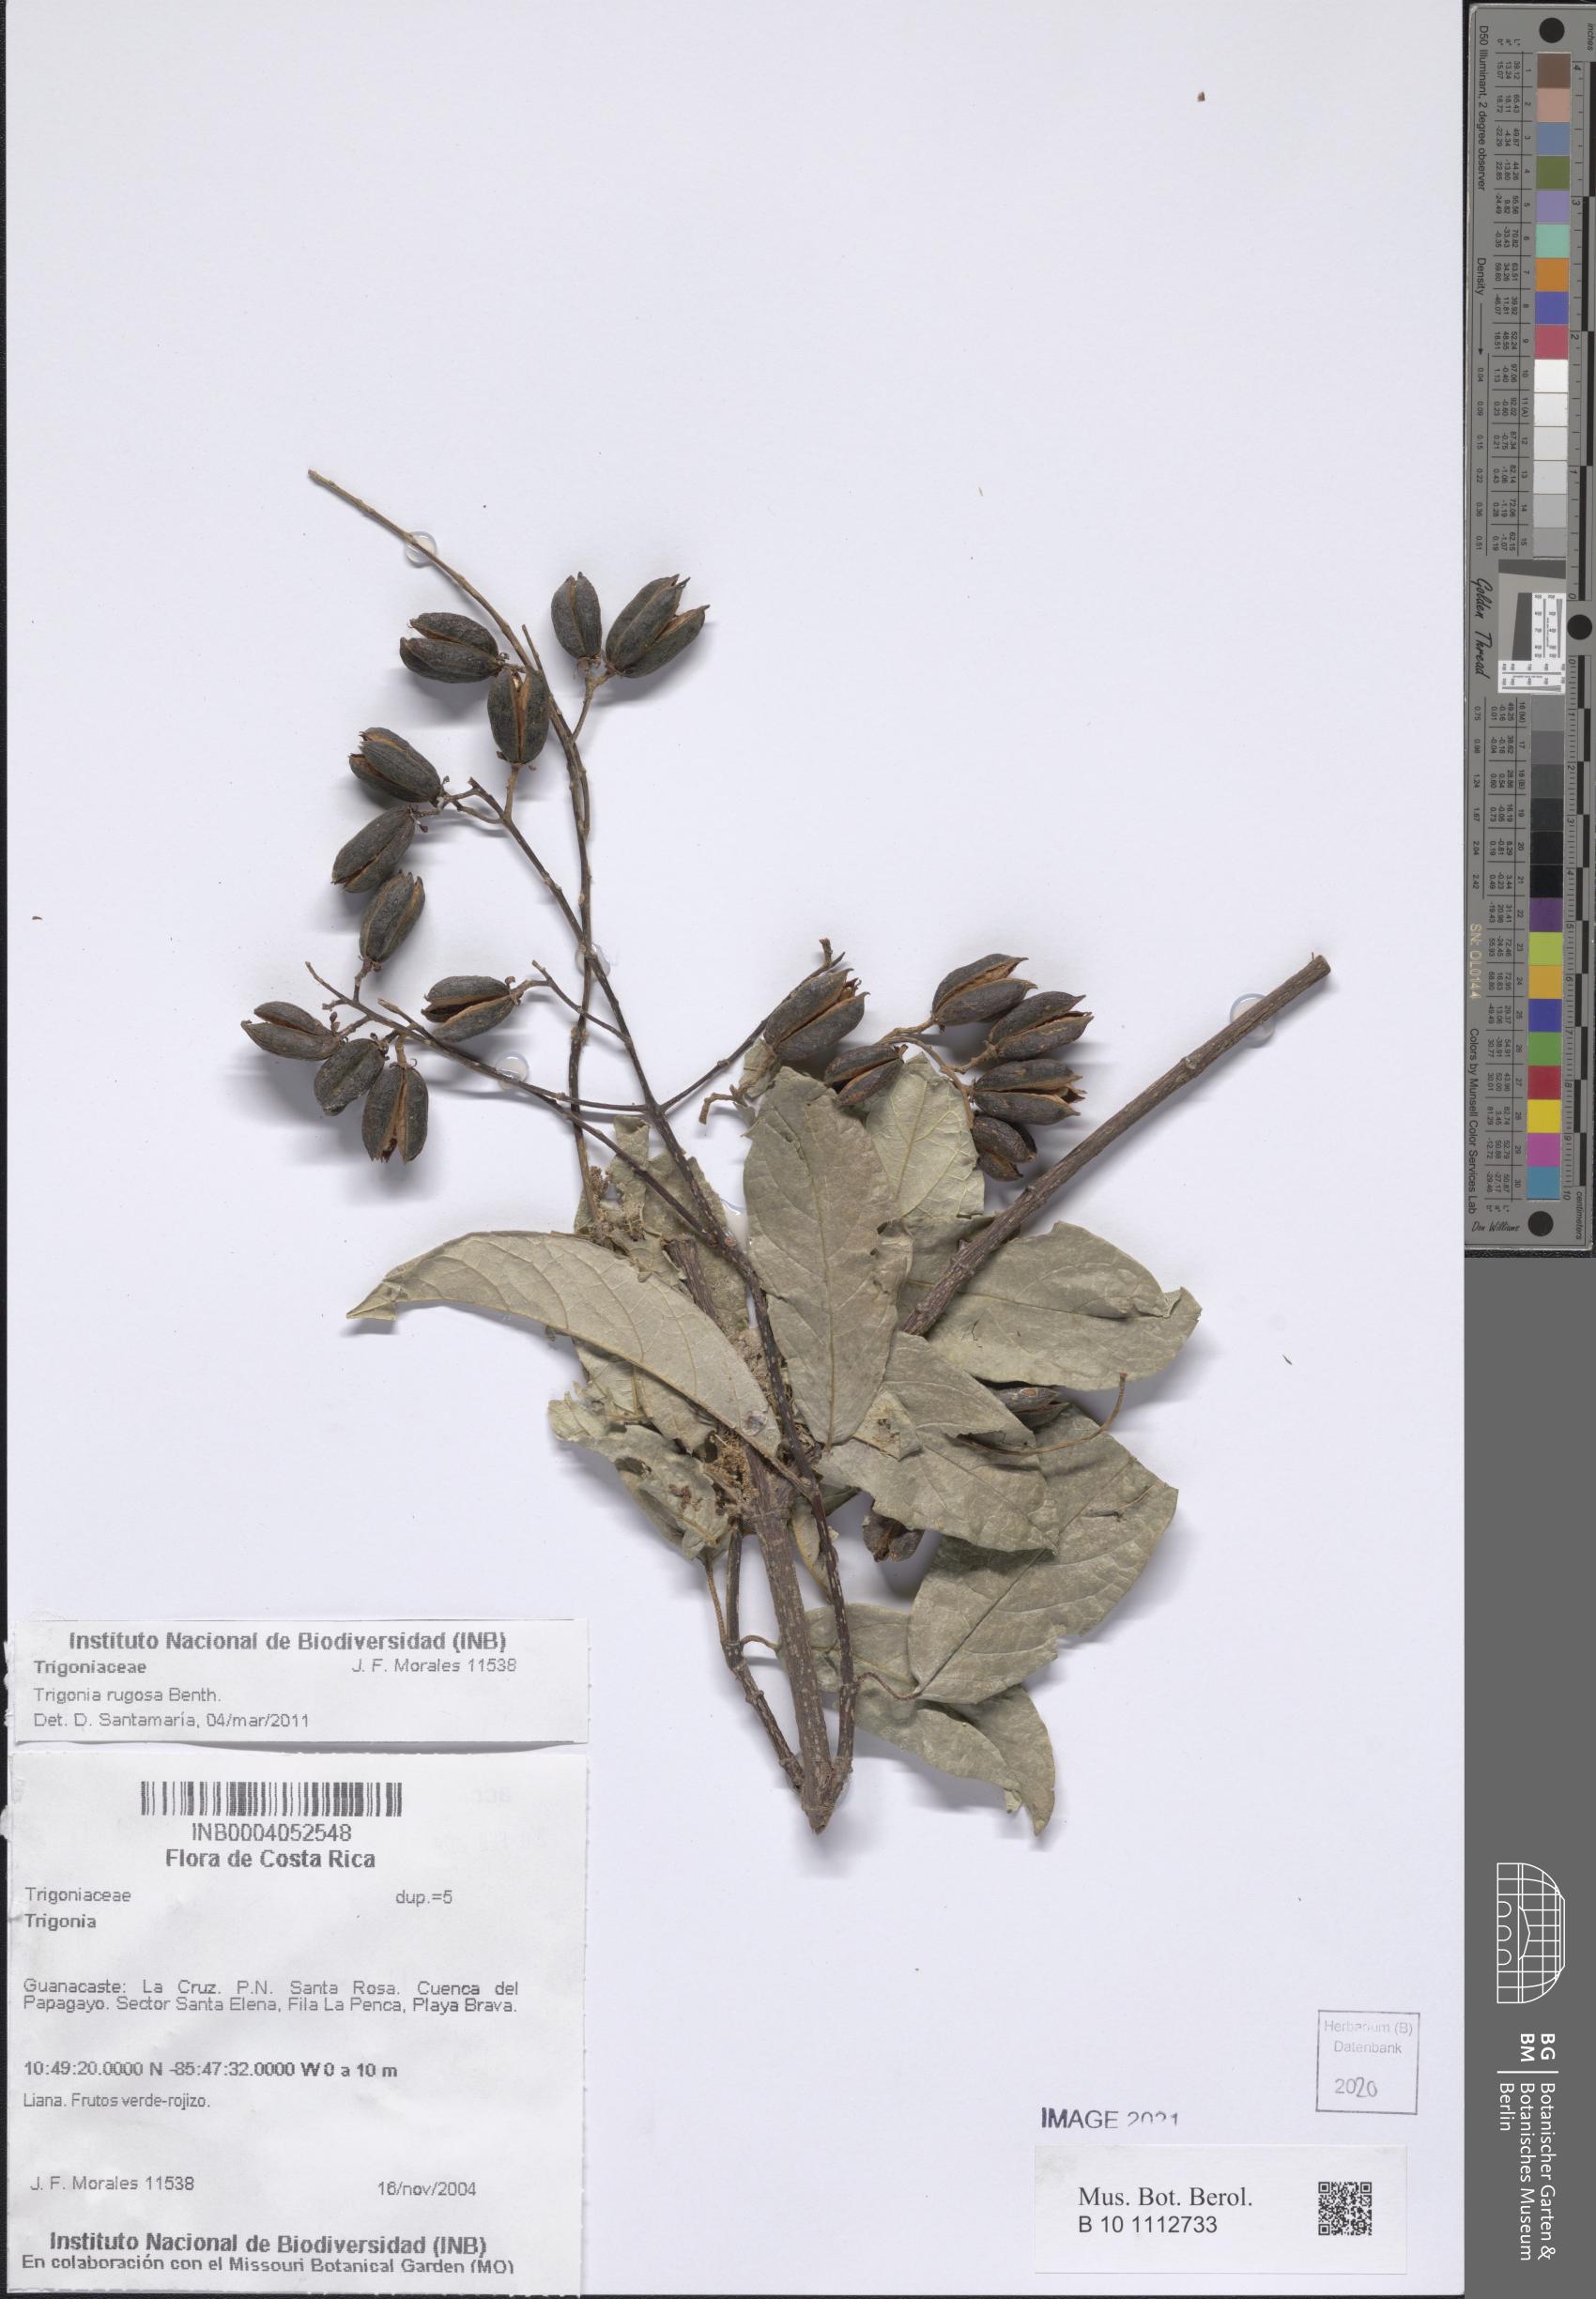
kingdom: Plantae
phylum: Tracheophyta
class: Magnoliopsida
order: Malpighiales
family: Trigoniaceae
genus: Trigonia
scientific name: Trigonia rugosa
